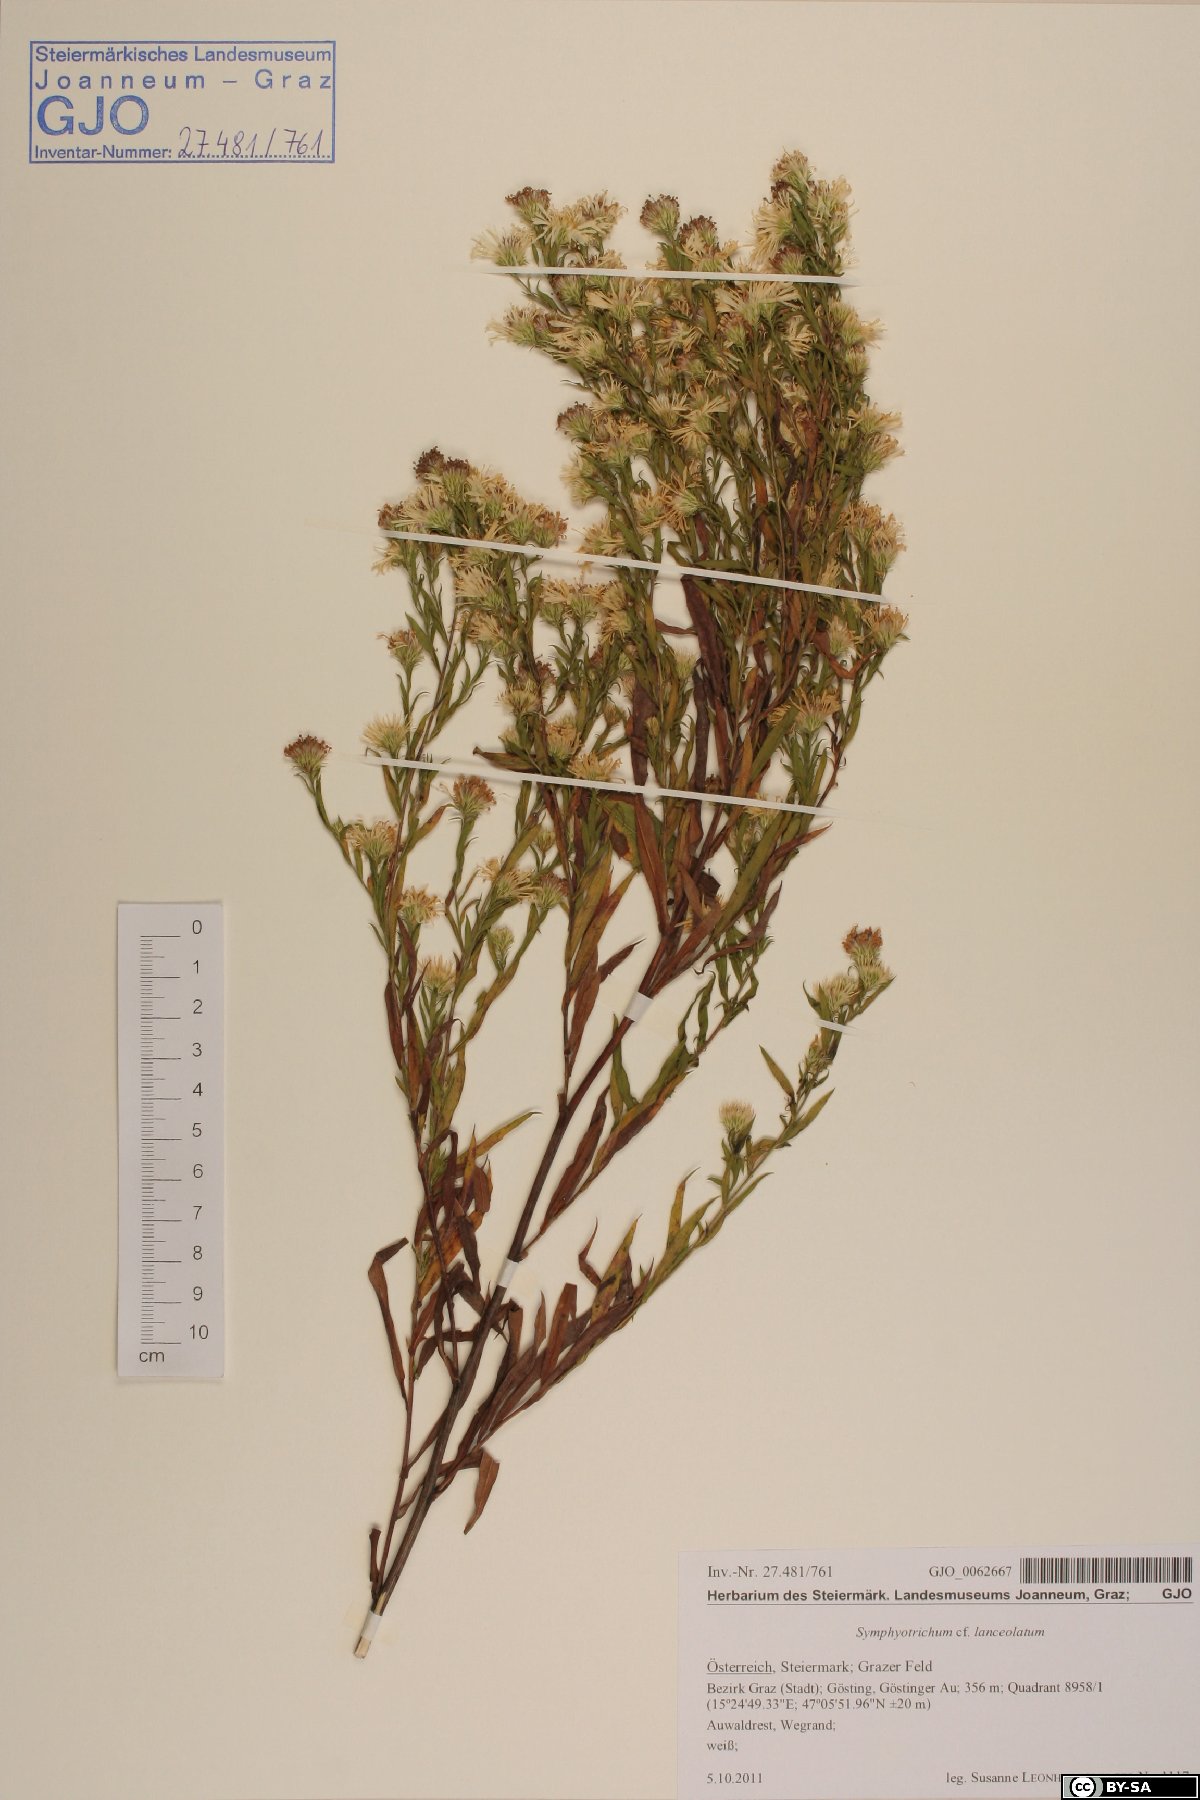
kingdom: Plantae
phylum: Tracheophyta
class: Magnoliopsida
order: Asterales
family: Asteraceae
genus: Symphyotrichum
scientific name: Symphyotrichum lanceolatum
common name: Panicled aster
